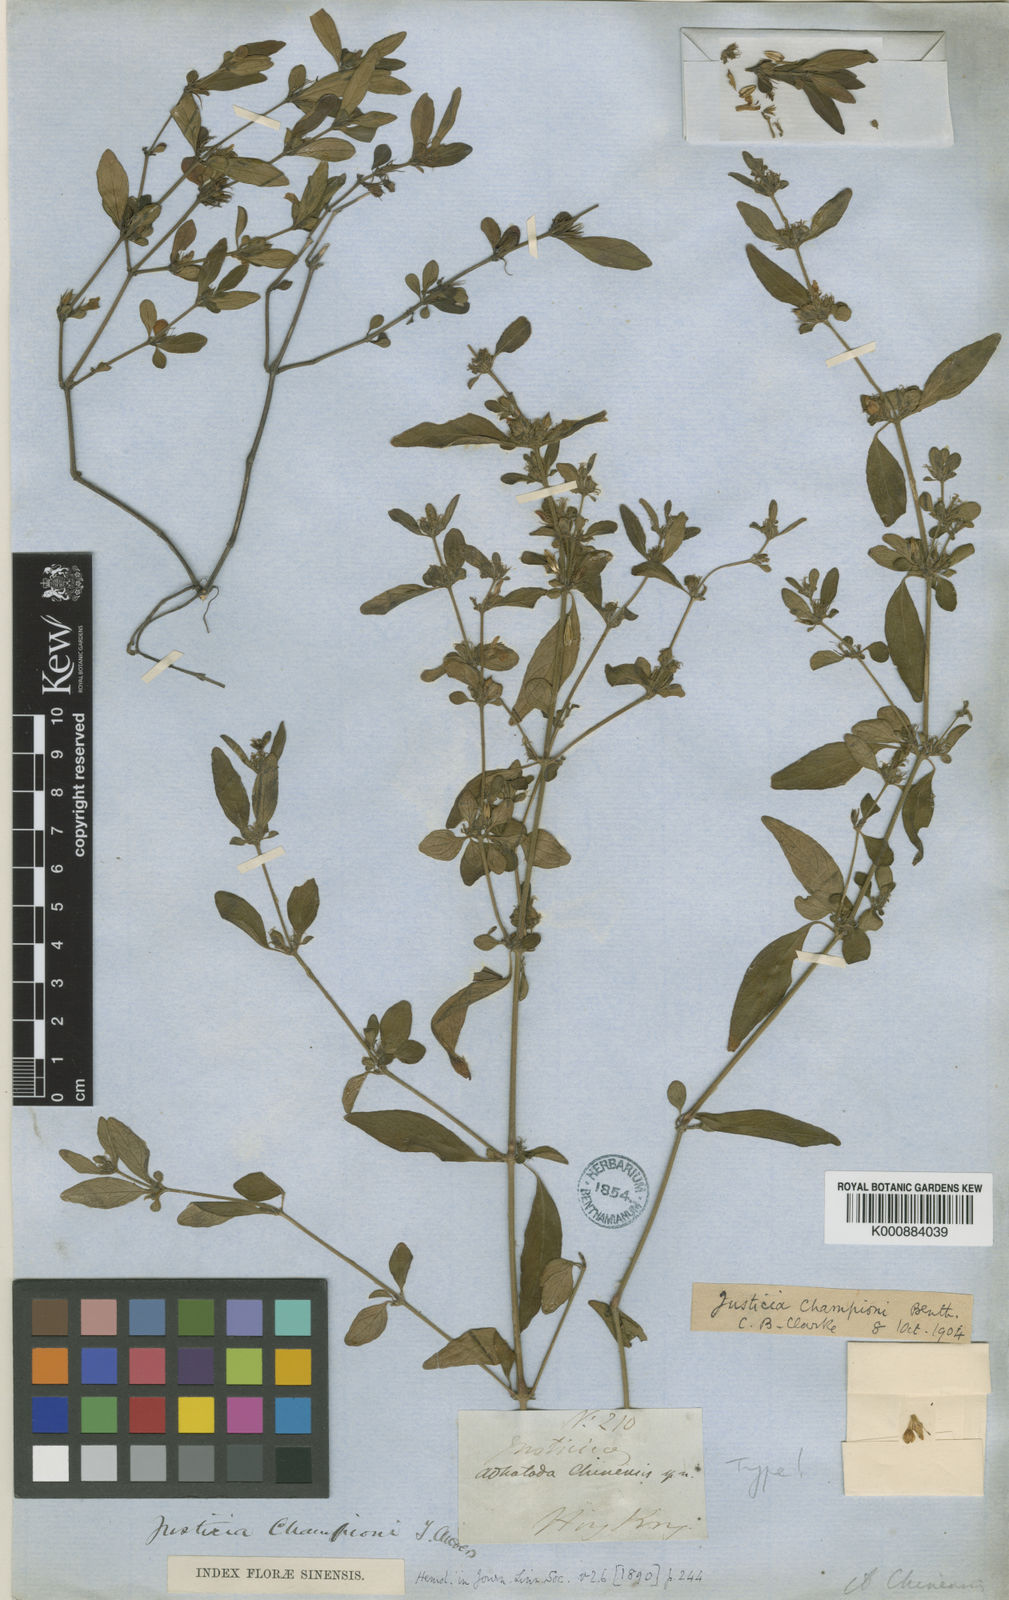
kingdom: Plantae
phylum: Tracheophyta
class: Magnoliopsida
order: Lamiales
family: Acanthaceae
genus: Justicia
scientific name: Justicia championii
